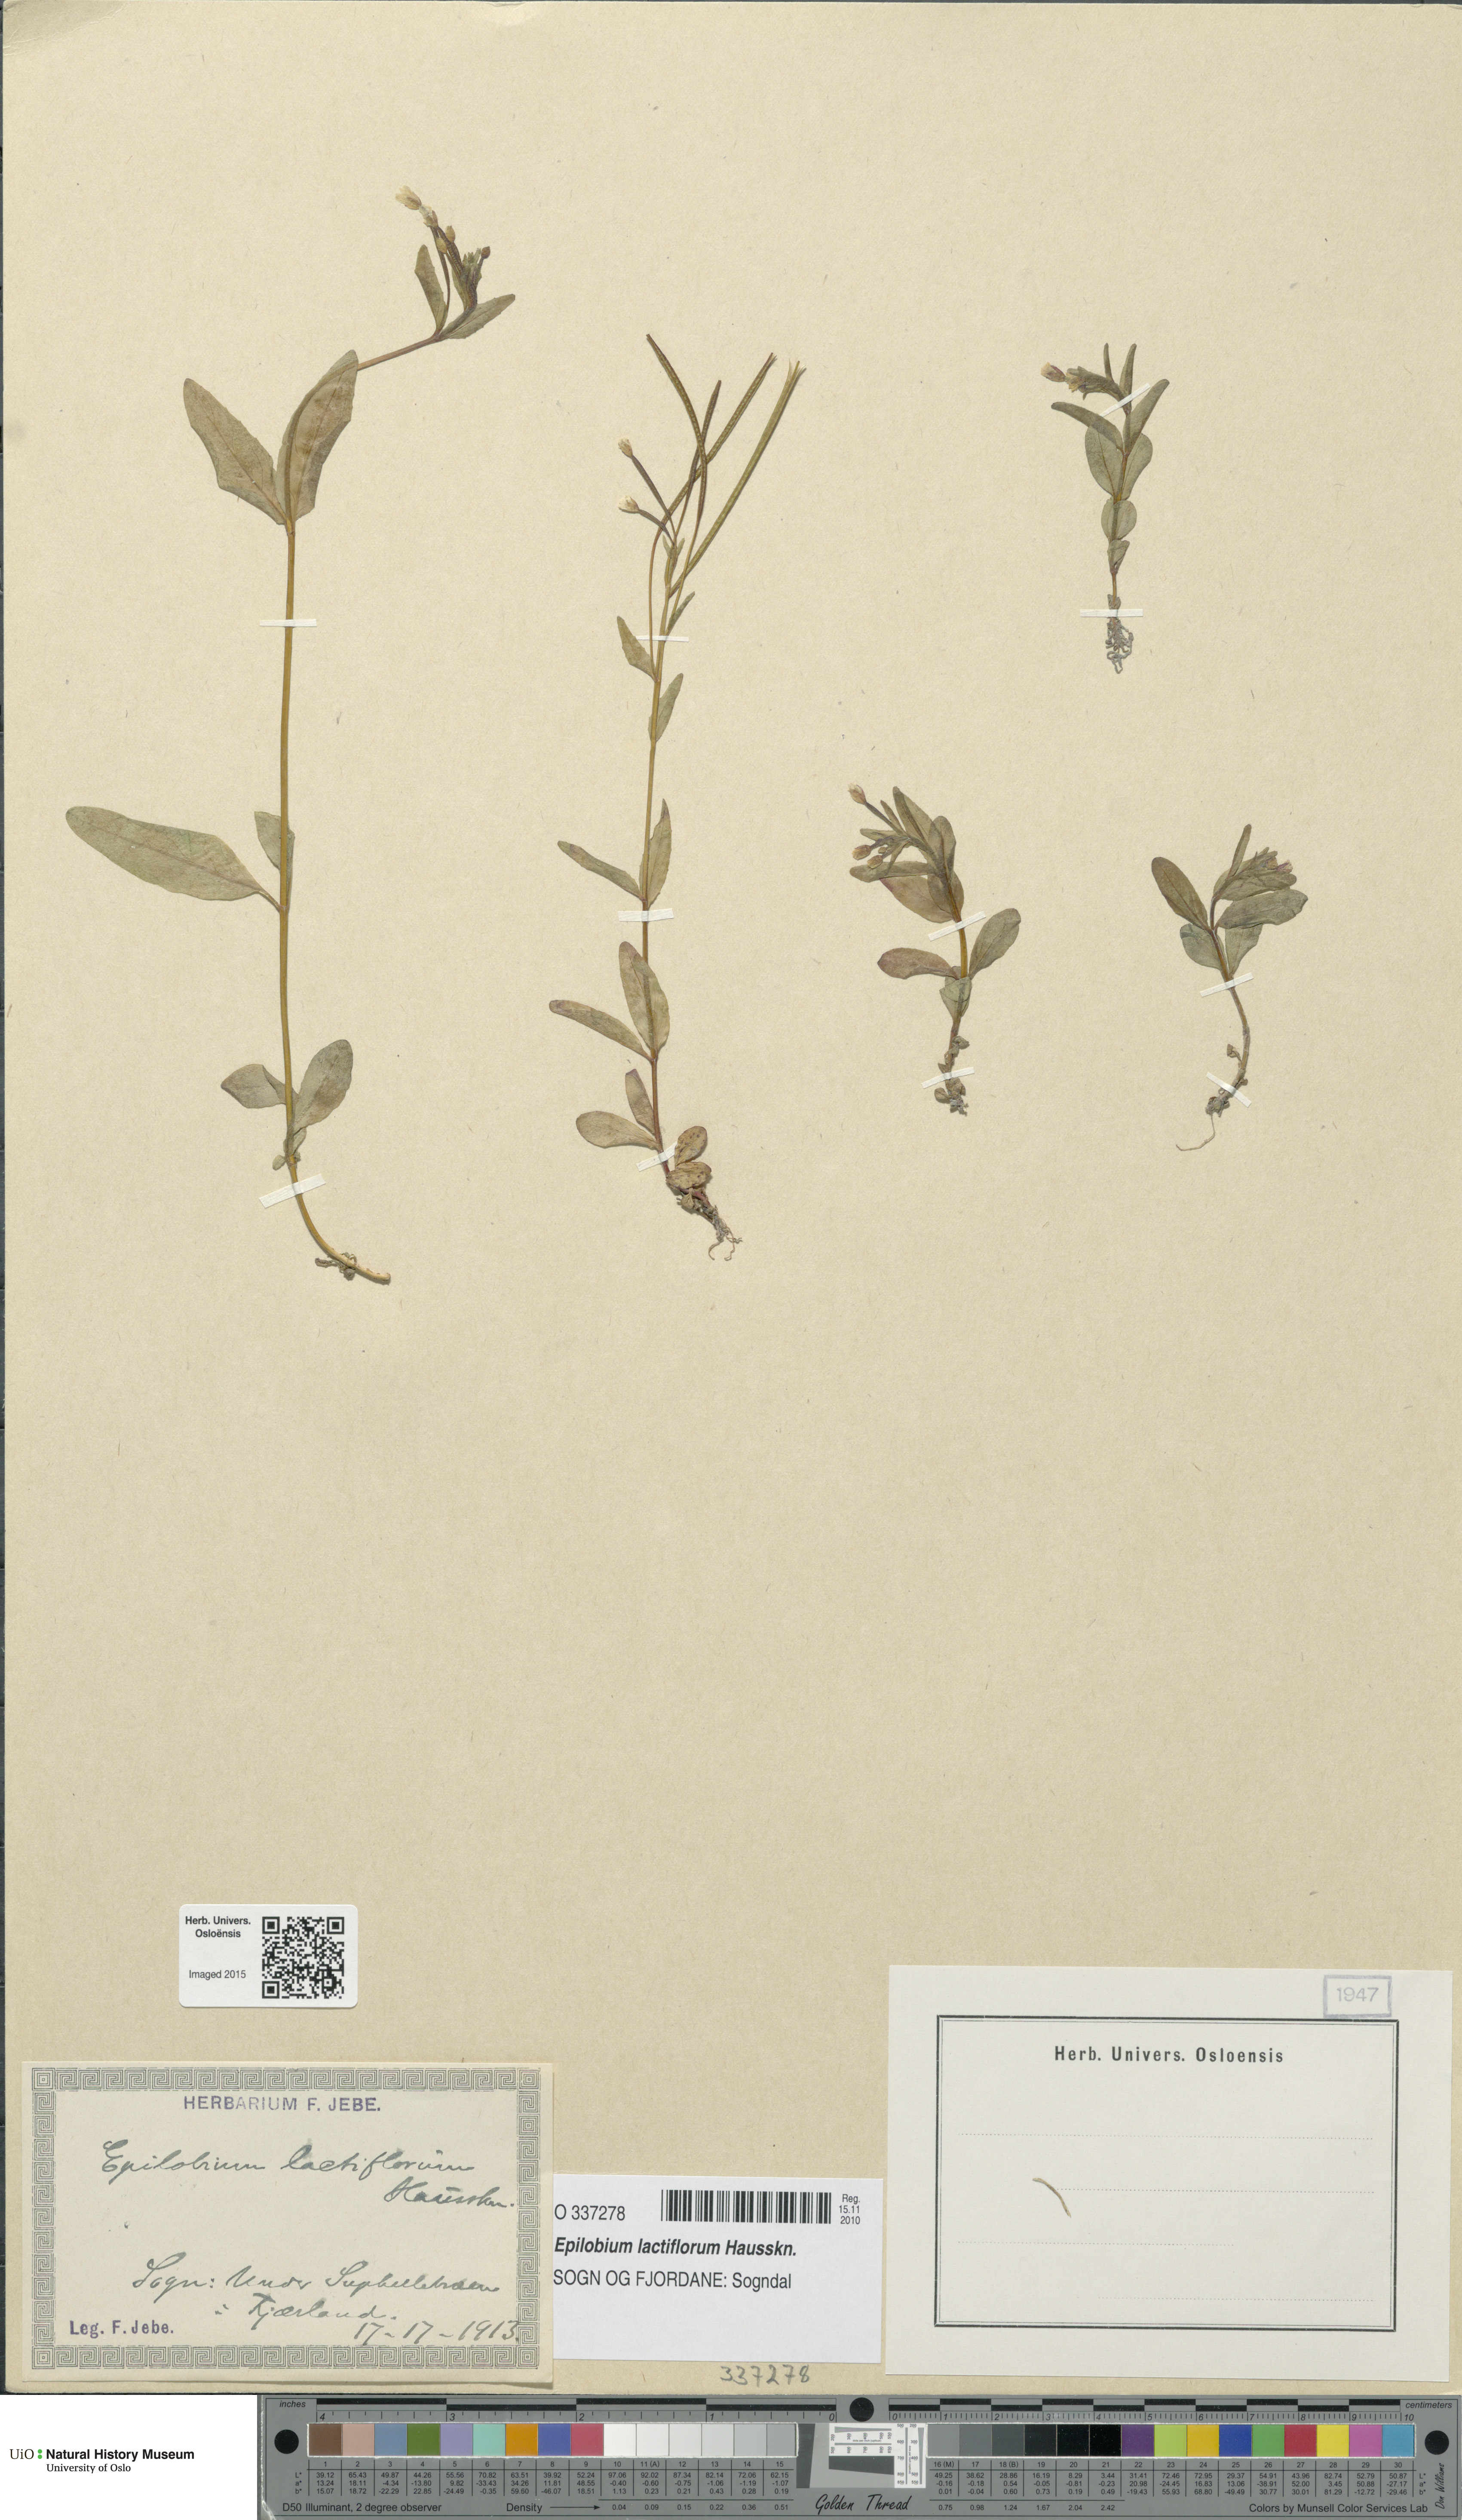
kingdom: Plantae
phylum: Tracheophyta
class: Magnoliopsida
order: Myrtales
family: Onagraceae
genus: Epilobium
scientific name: Epilobium lactiflorum
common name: Milkflower willowherb
